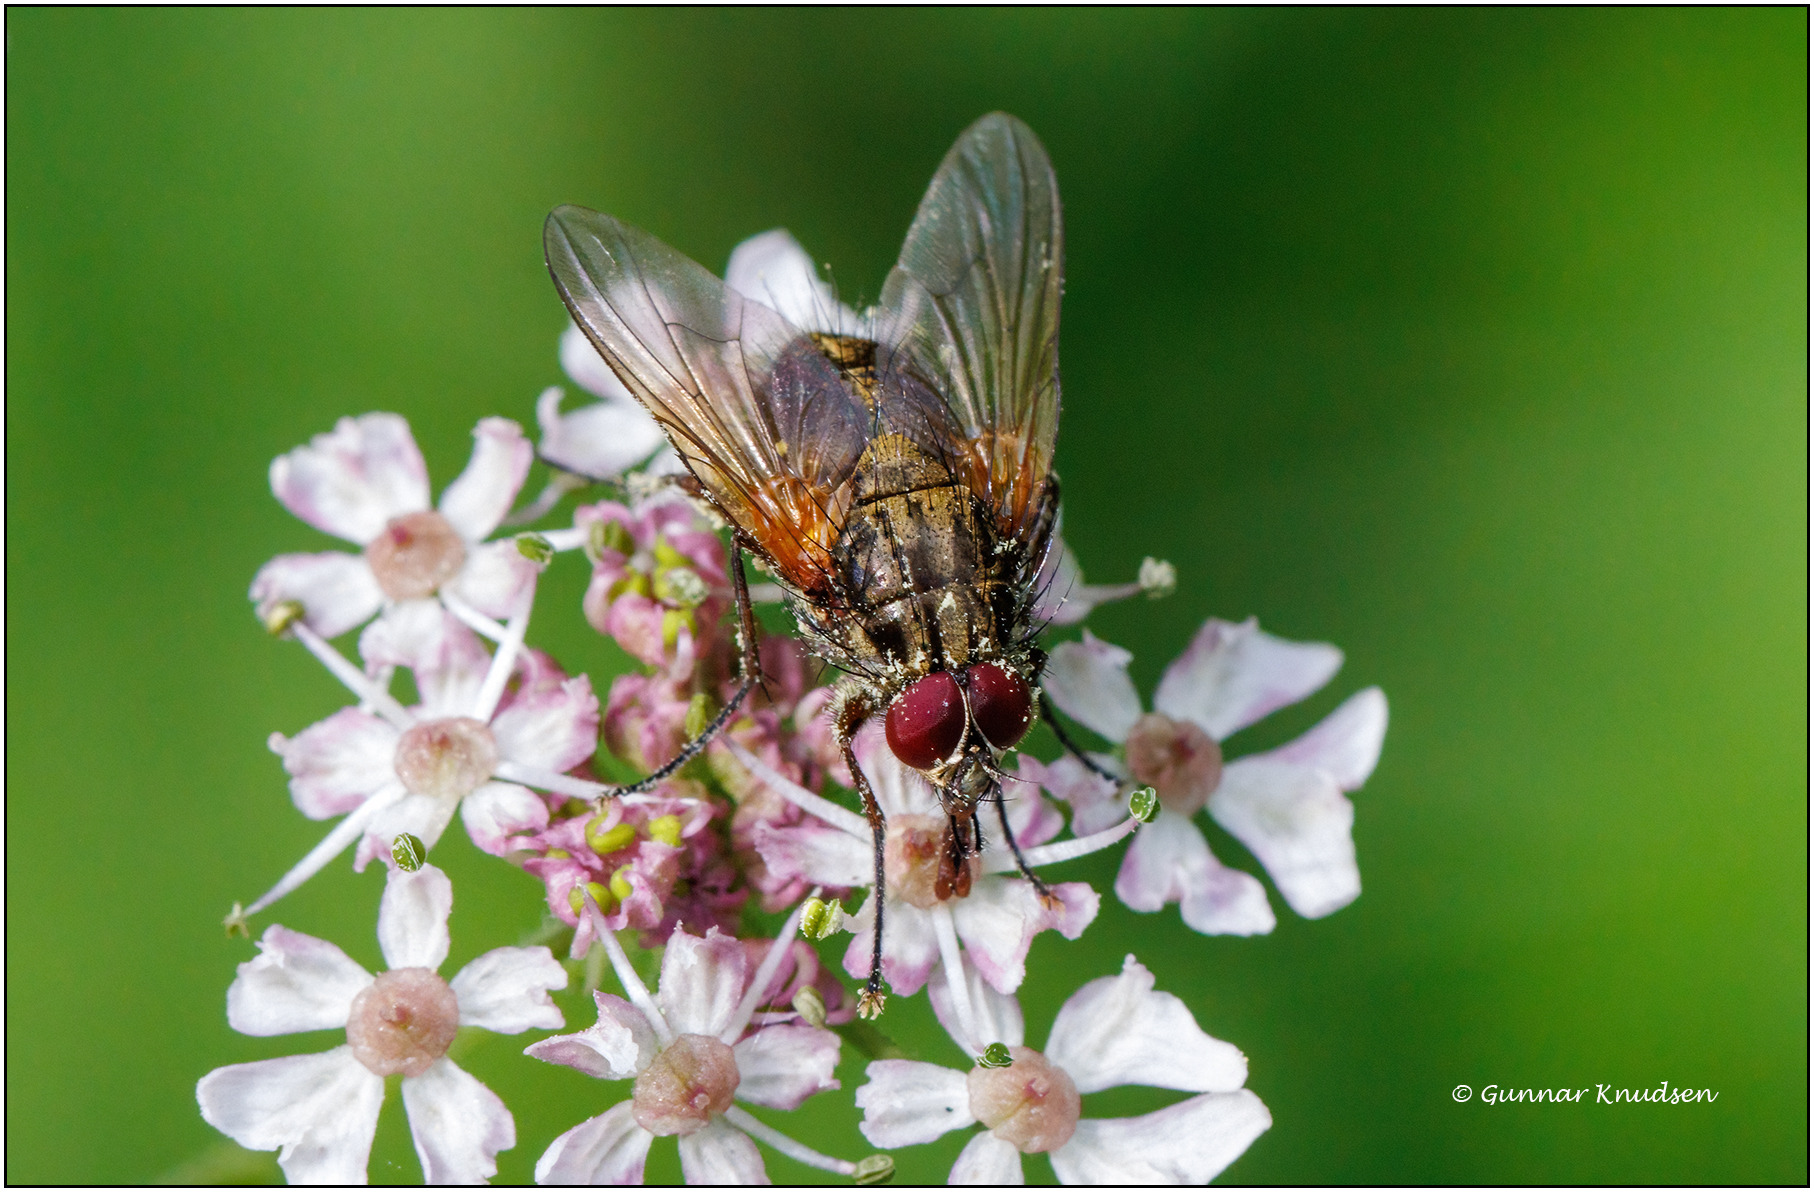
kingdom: Animalia
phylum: Arthropoda
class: Insecta
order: Diptera
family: Muscidae
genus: Phaonia
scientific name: Phaonia angelicae
